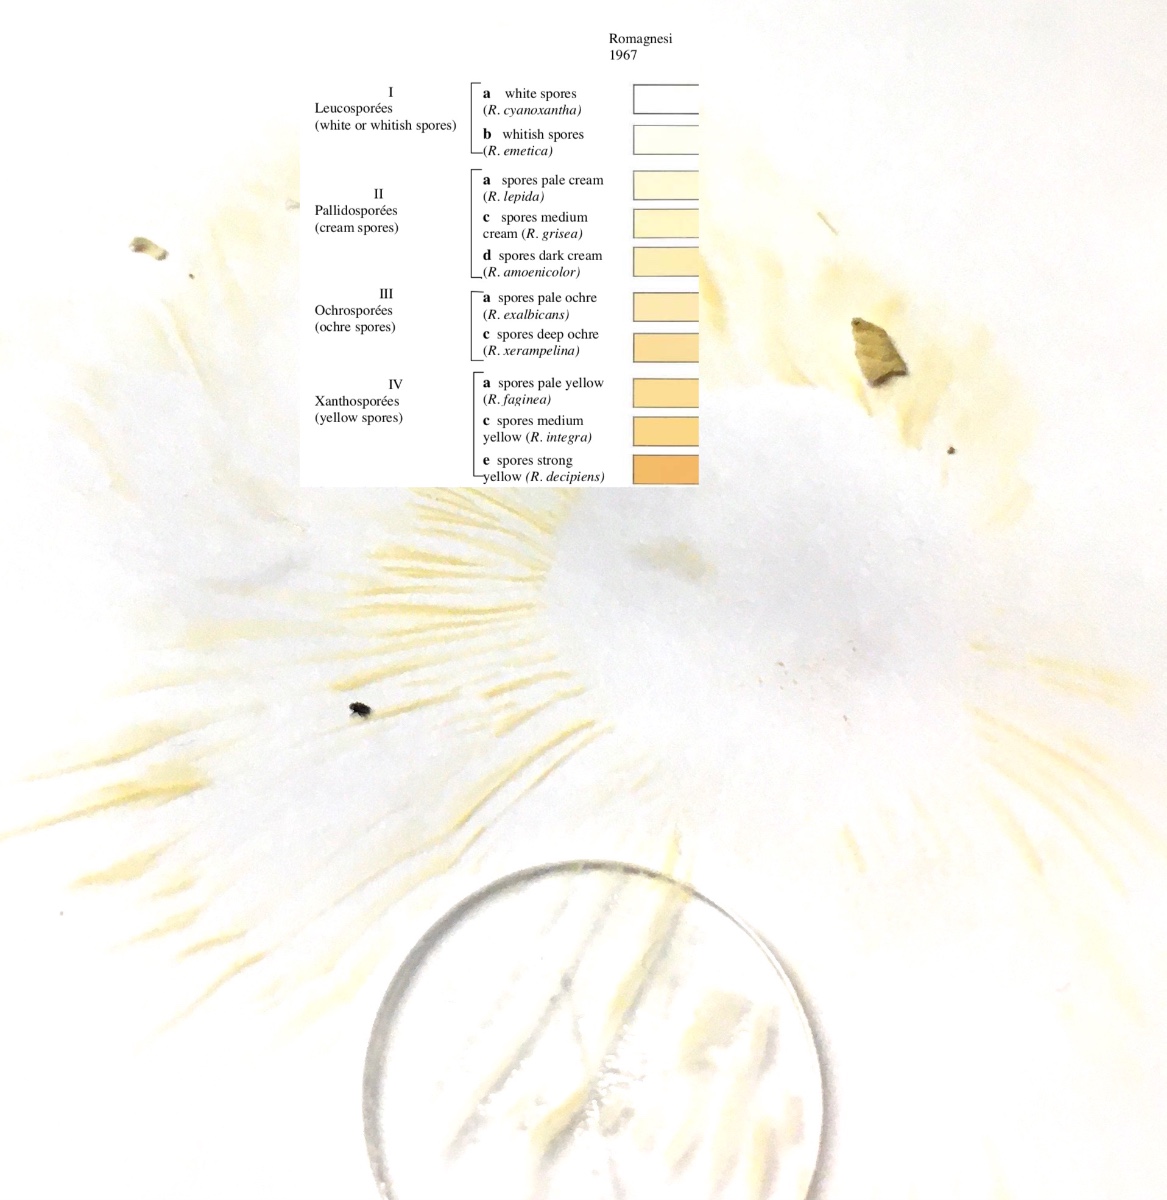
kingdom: Fungi
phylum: Basidiomycota
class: Agaricomycetes
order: Russulales
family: Russulaceae
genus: Russula
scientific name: Russula velenovskyi
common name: orangerød skørhat
